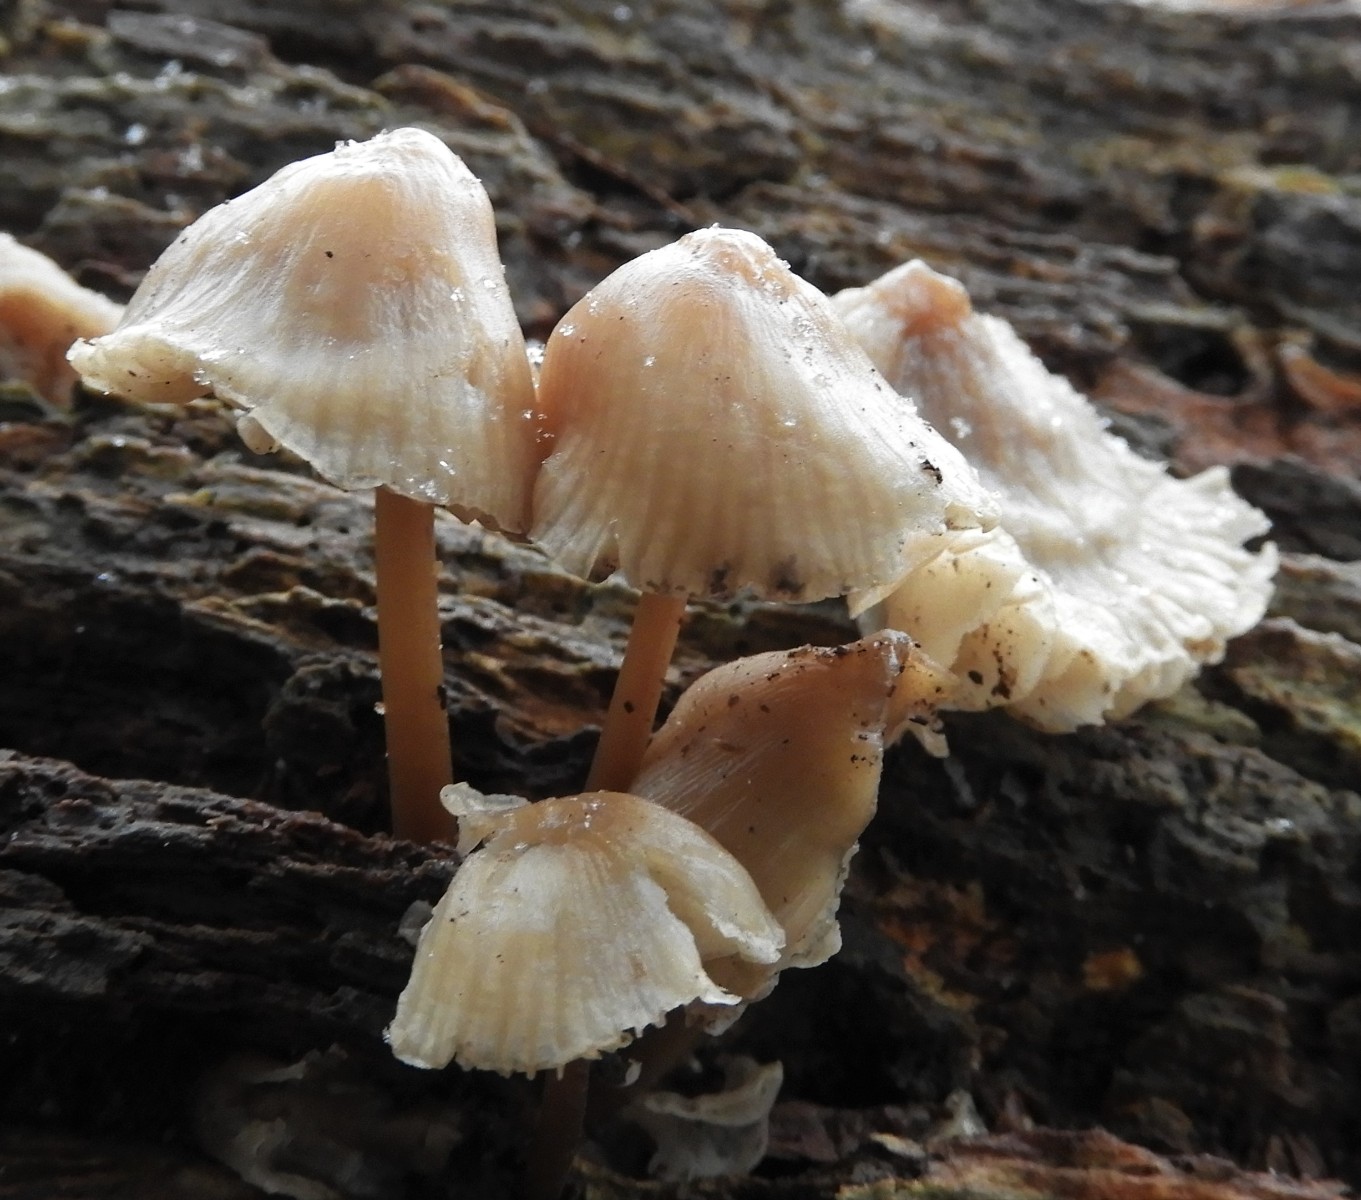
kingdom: Fungi
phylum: Basidiomycota
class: Agaricomycetes
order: Agaricales
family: Mycenaceae
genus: Mycena
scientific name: Mycena galericulata
